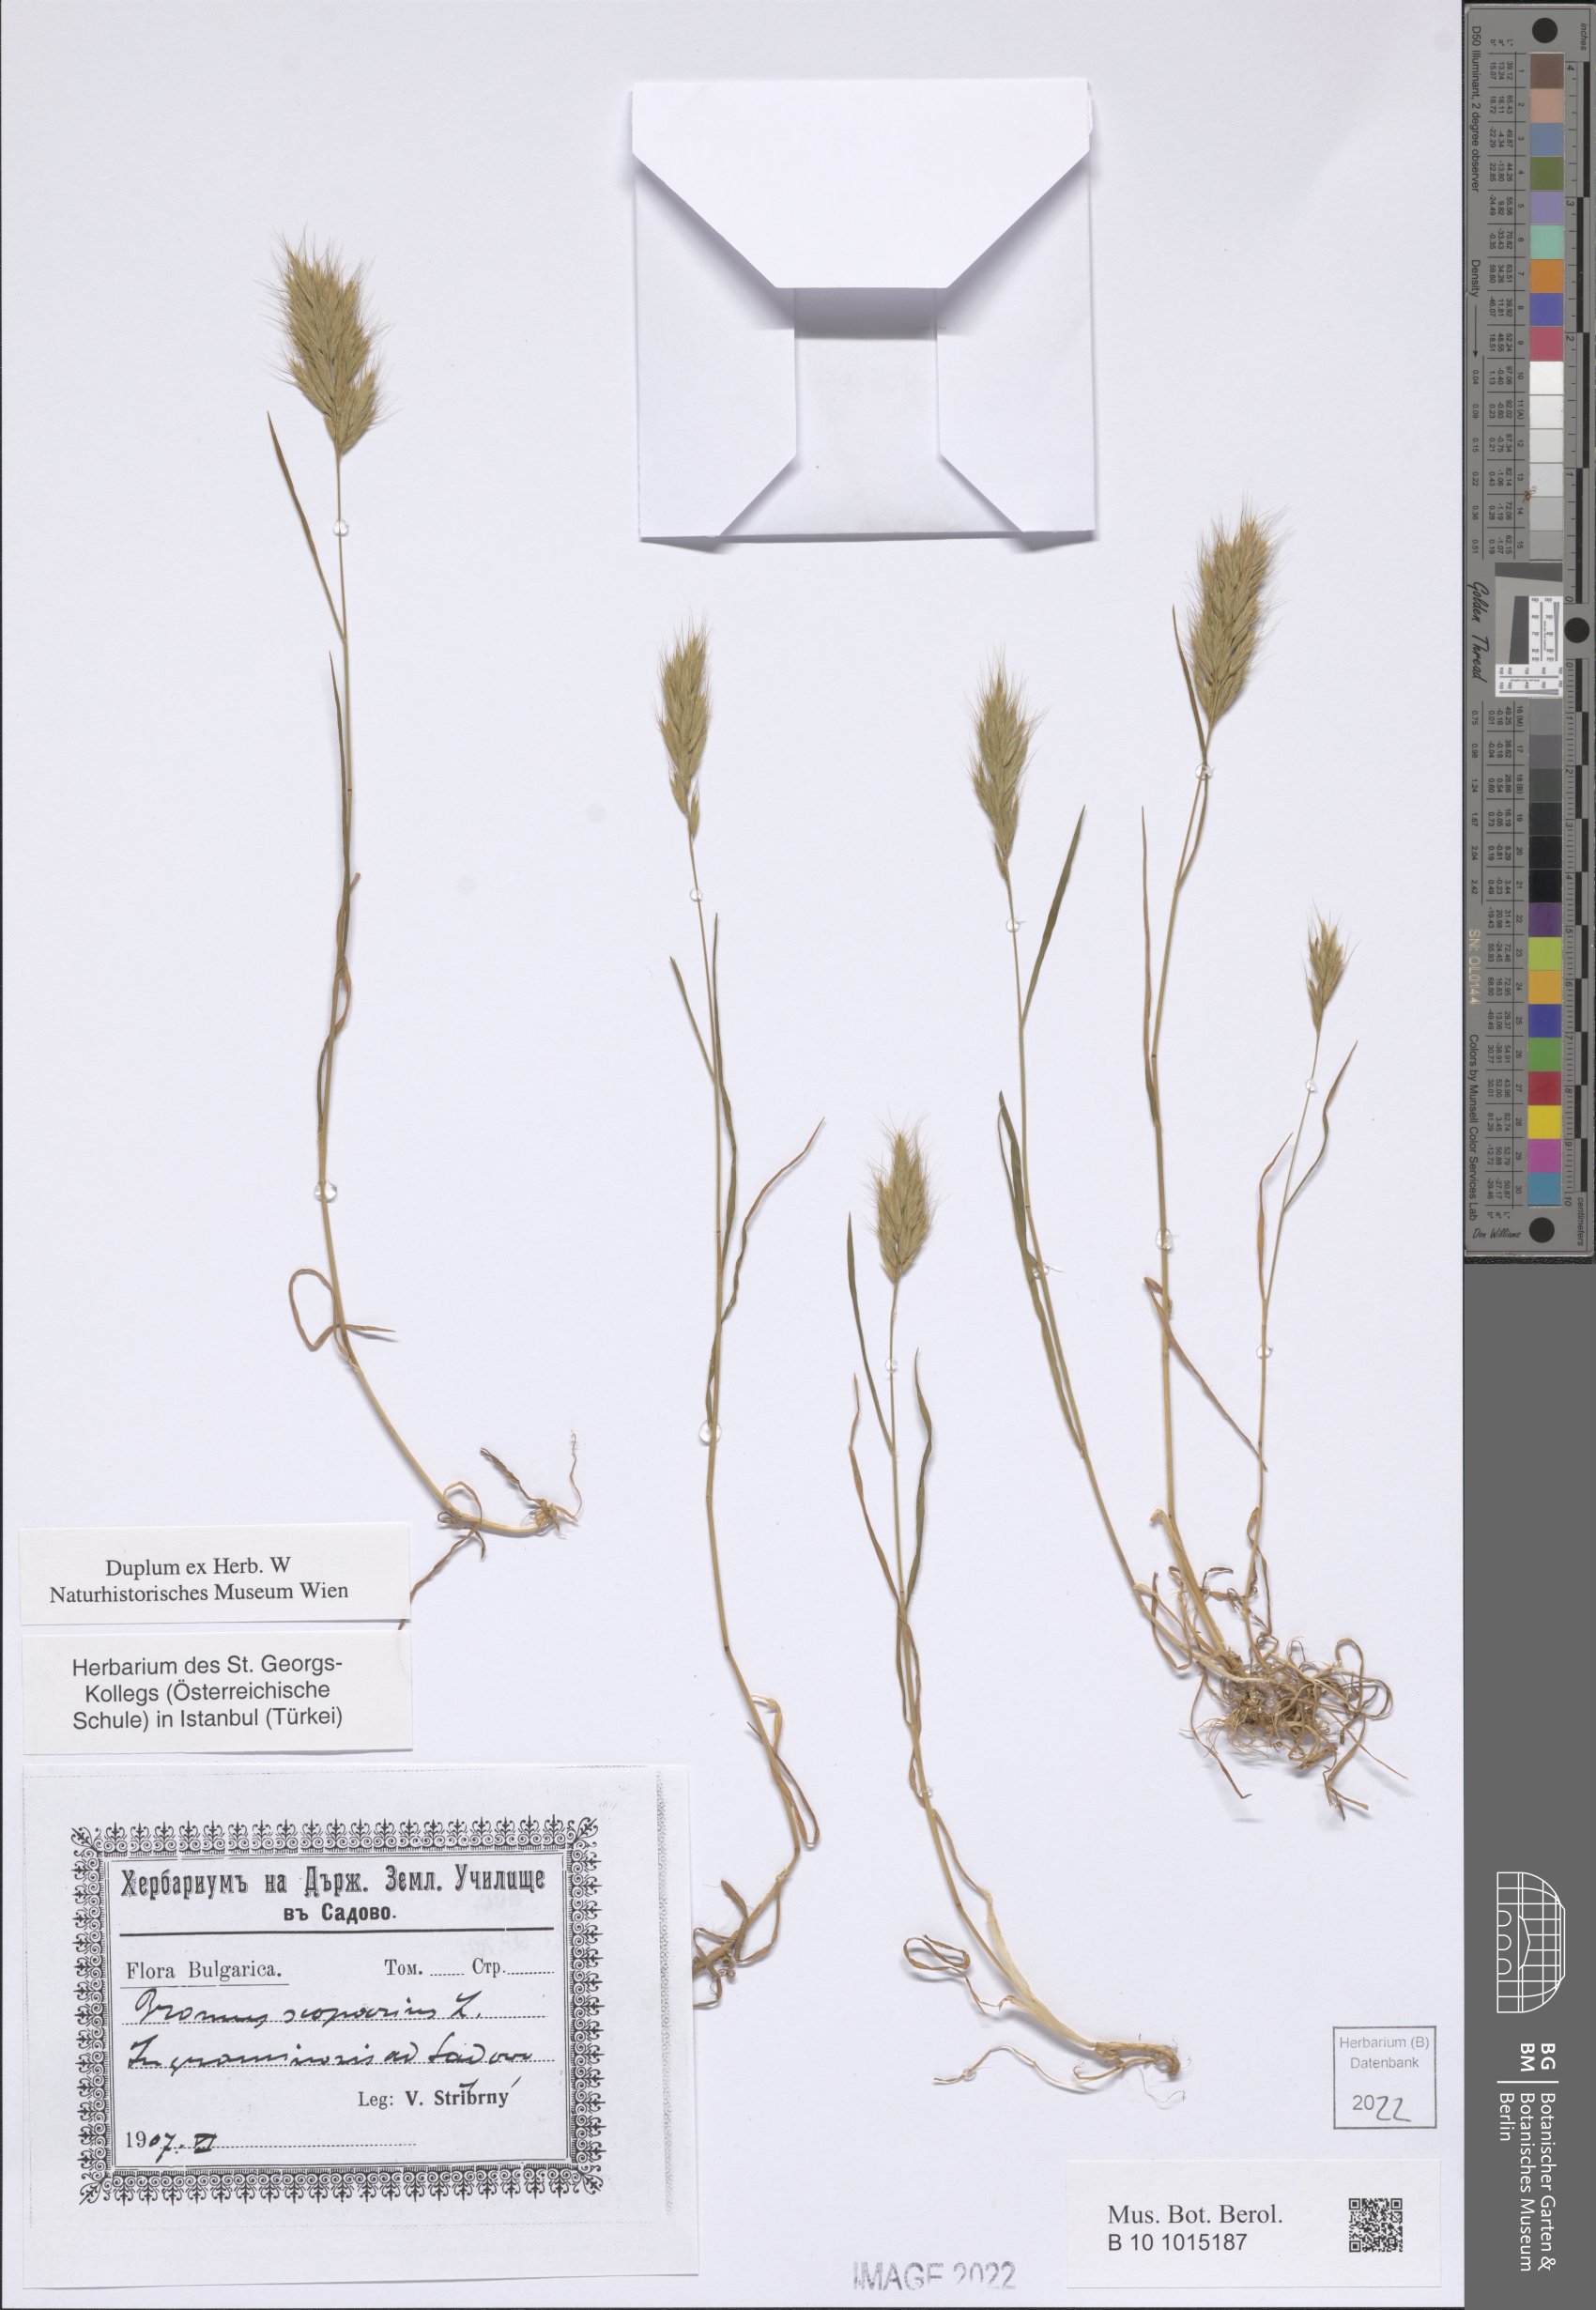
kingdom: Plantae
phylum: Tracheophyta
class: Liliopsida
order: Poales
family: Poaceae
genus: Bromus
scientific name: Bromus scoparius
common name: Broom brome
